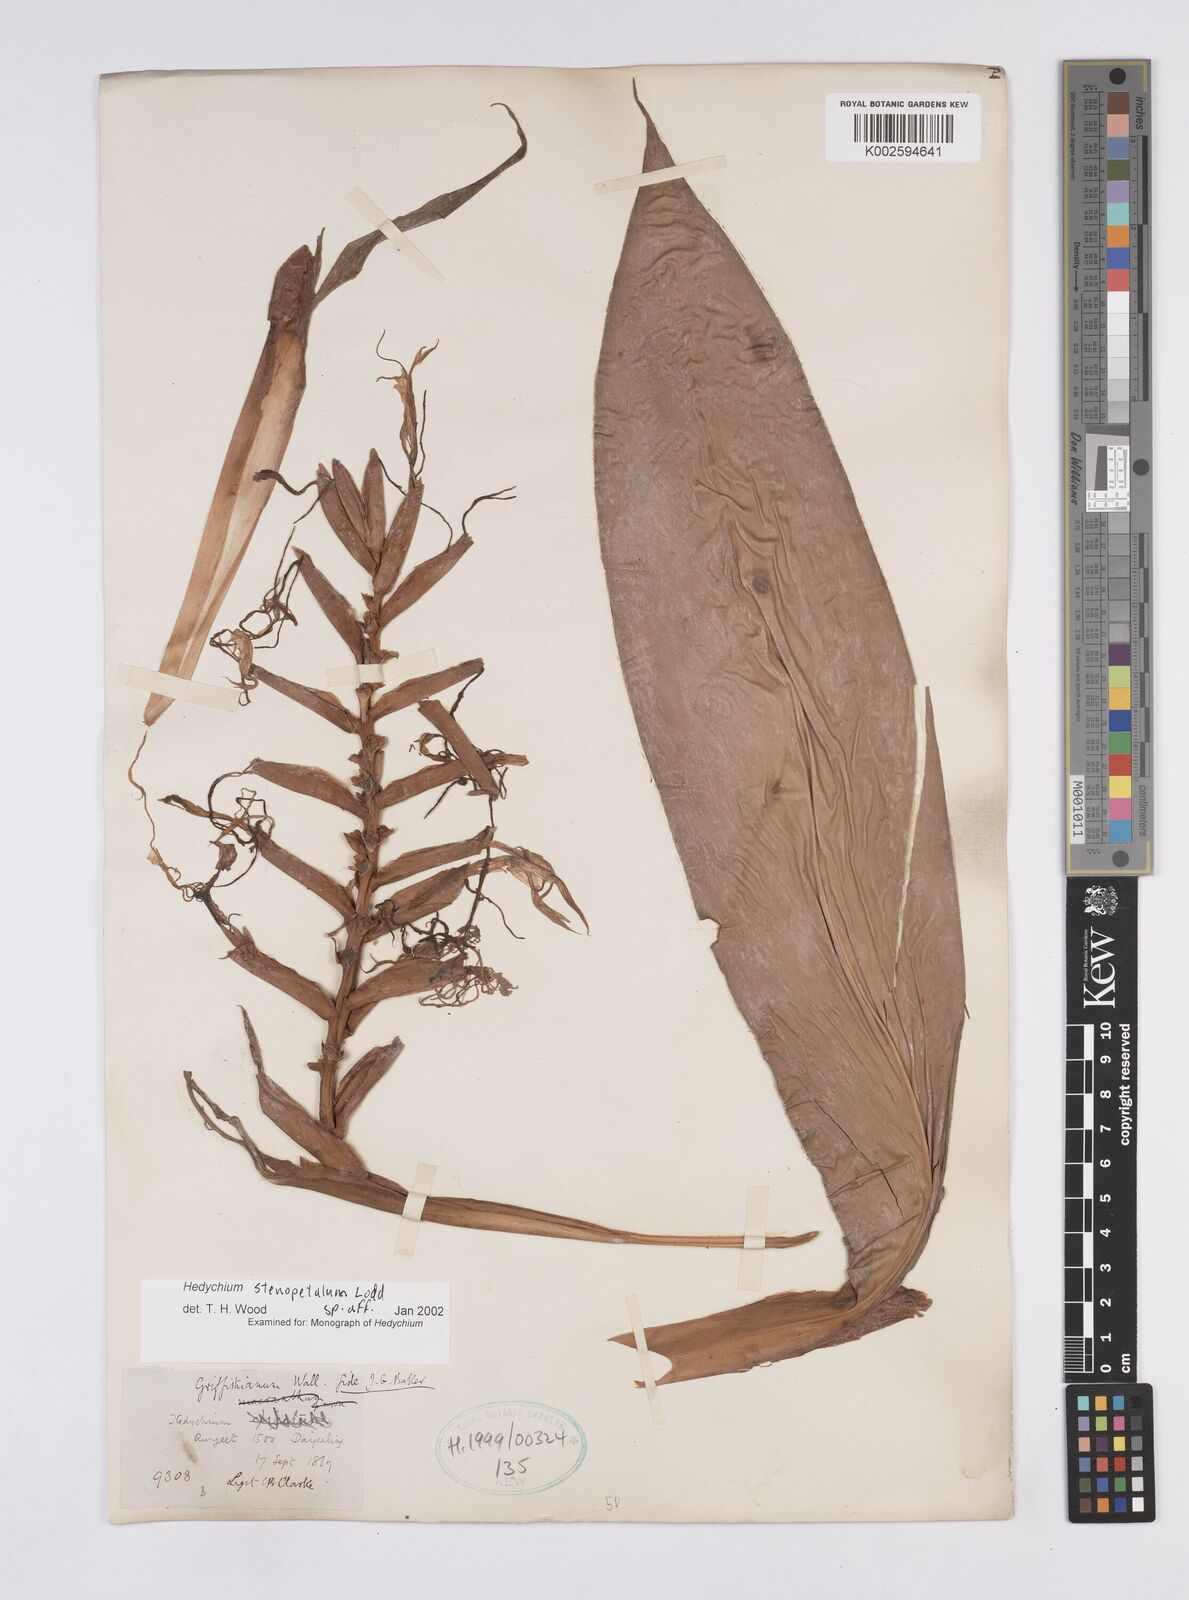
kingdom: Plantae
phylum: Tracheophyta
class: Liliopsida
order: Zingiberales
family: Zingiberaceae
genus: Hedychium
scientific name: Hedychium stenopetalum
